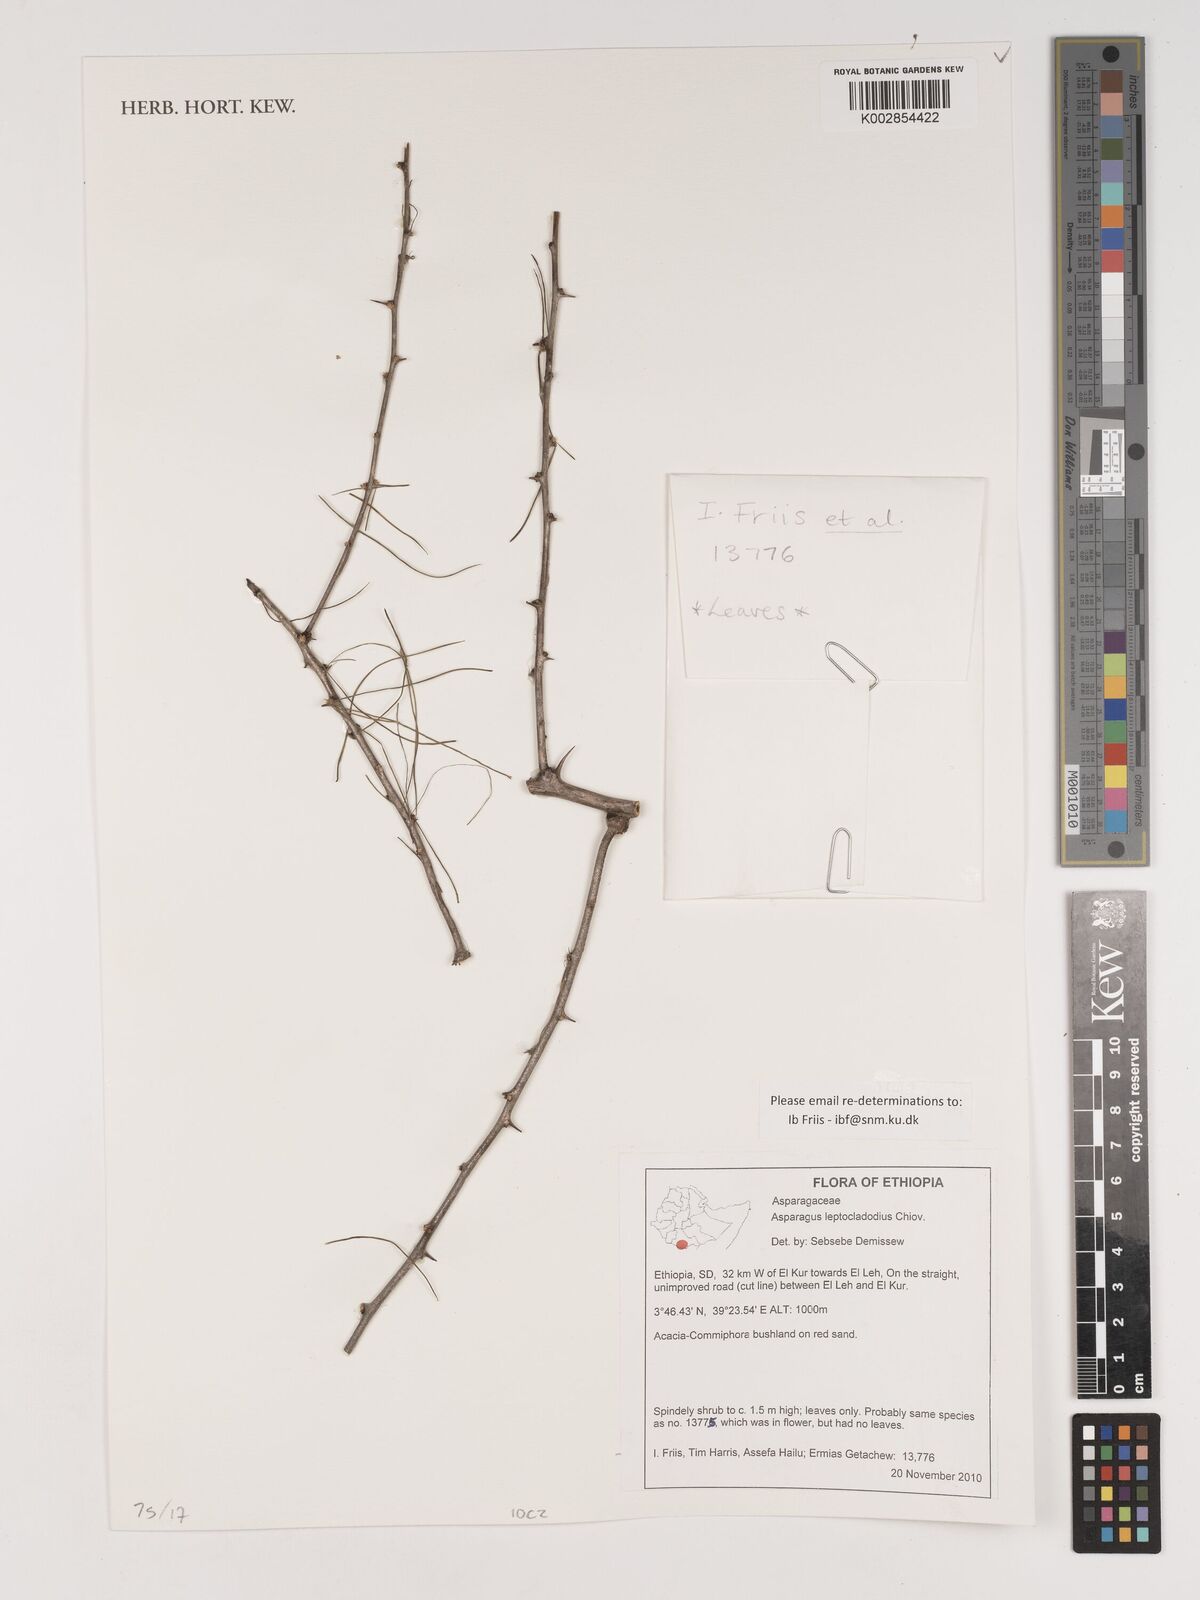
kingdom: Plantae
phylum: Tracheophyta
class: Liliopsida
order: Asparagales
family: Asparagaceae
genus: Asparagus
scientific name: Asparagus leptocladodius
